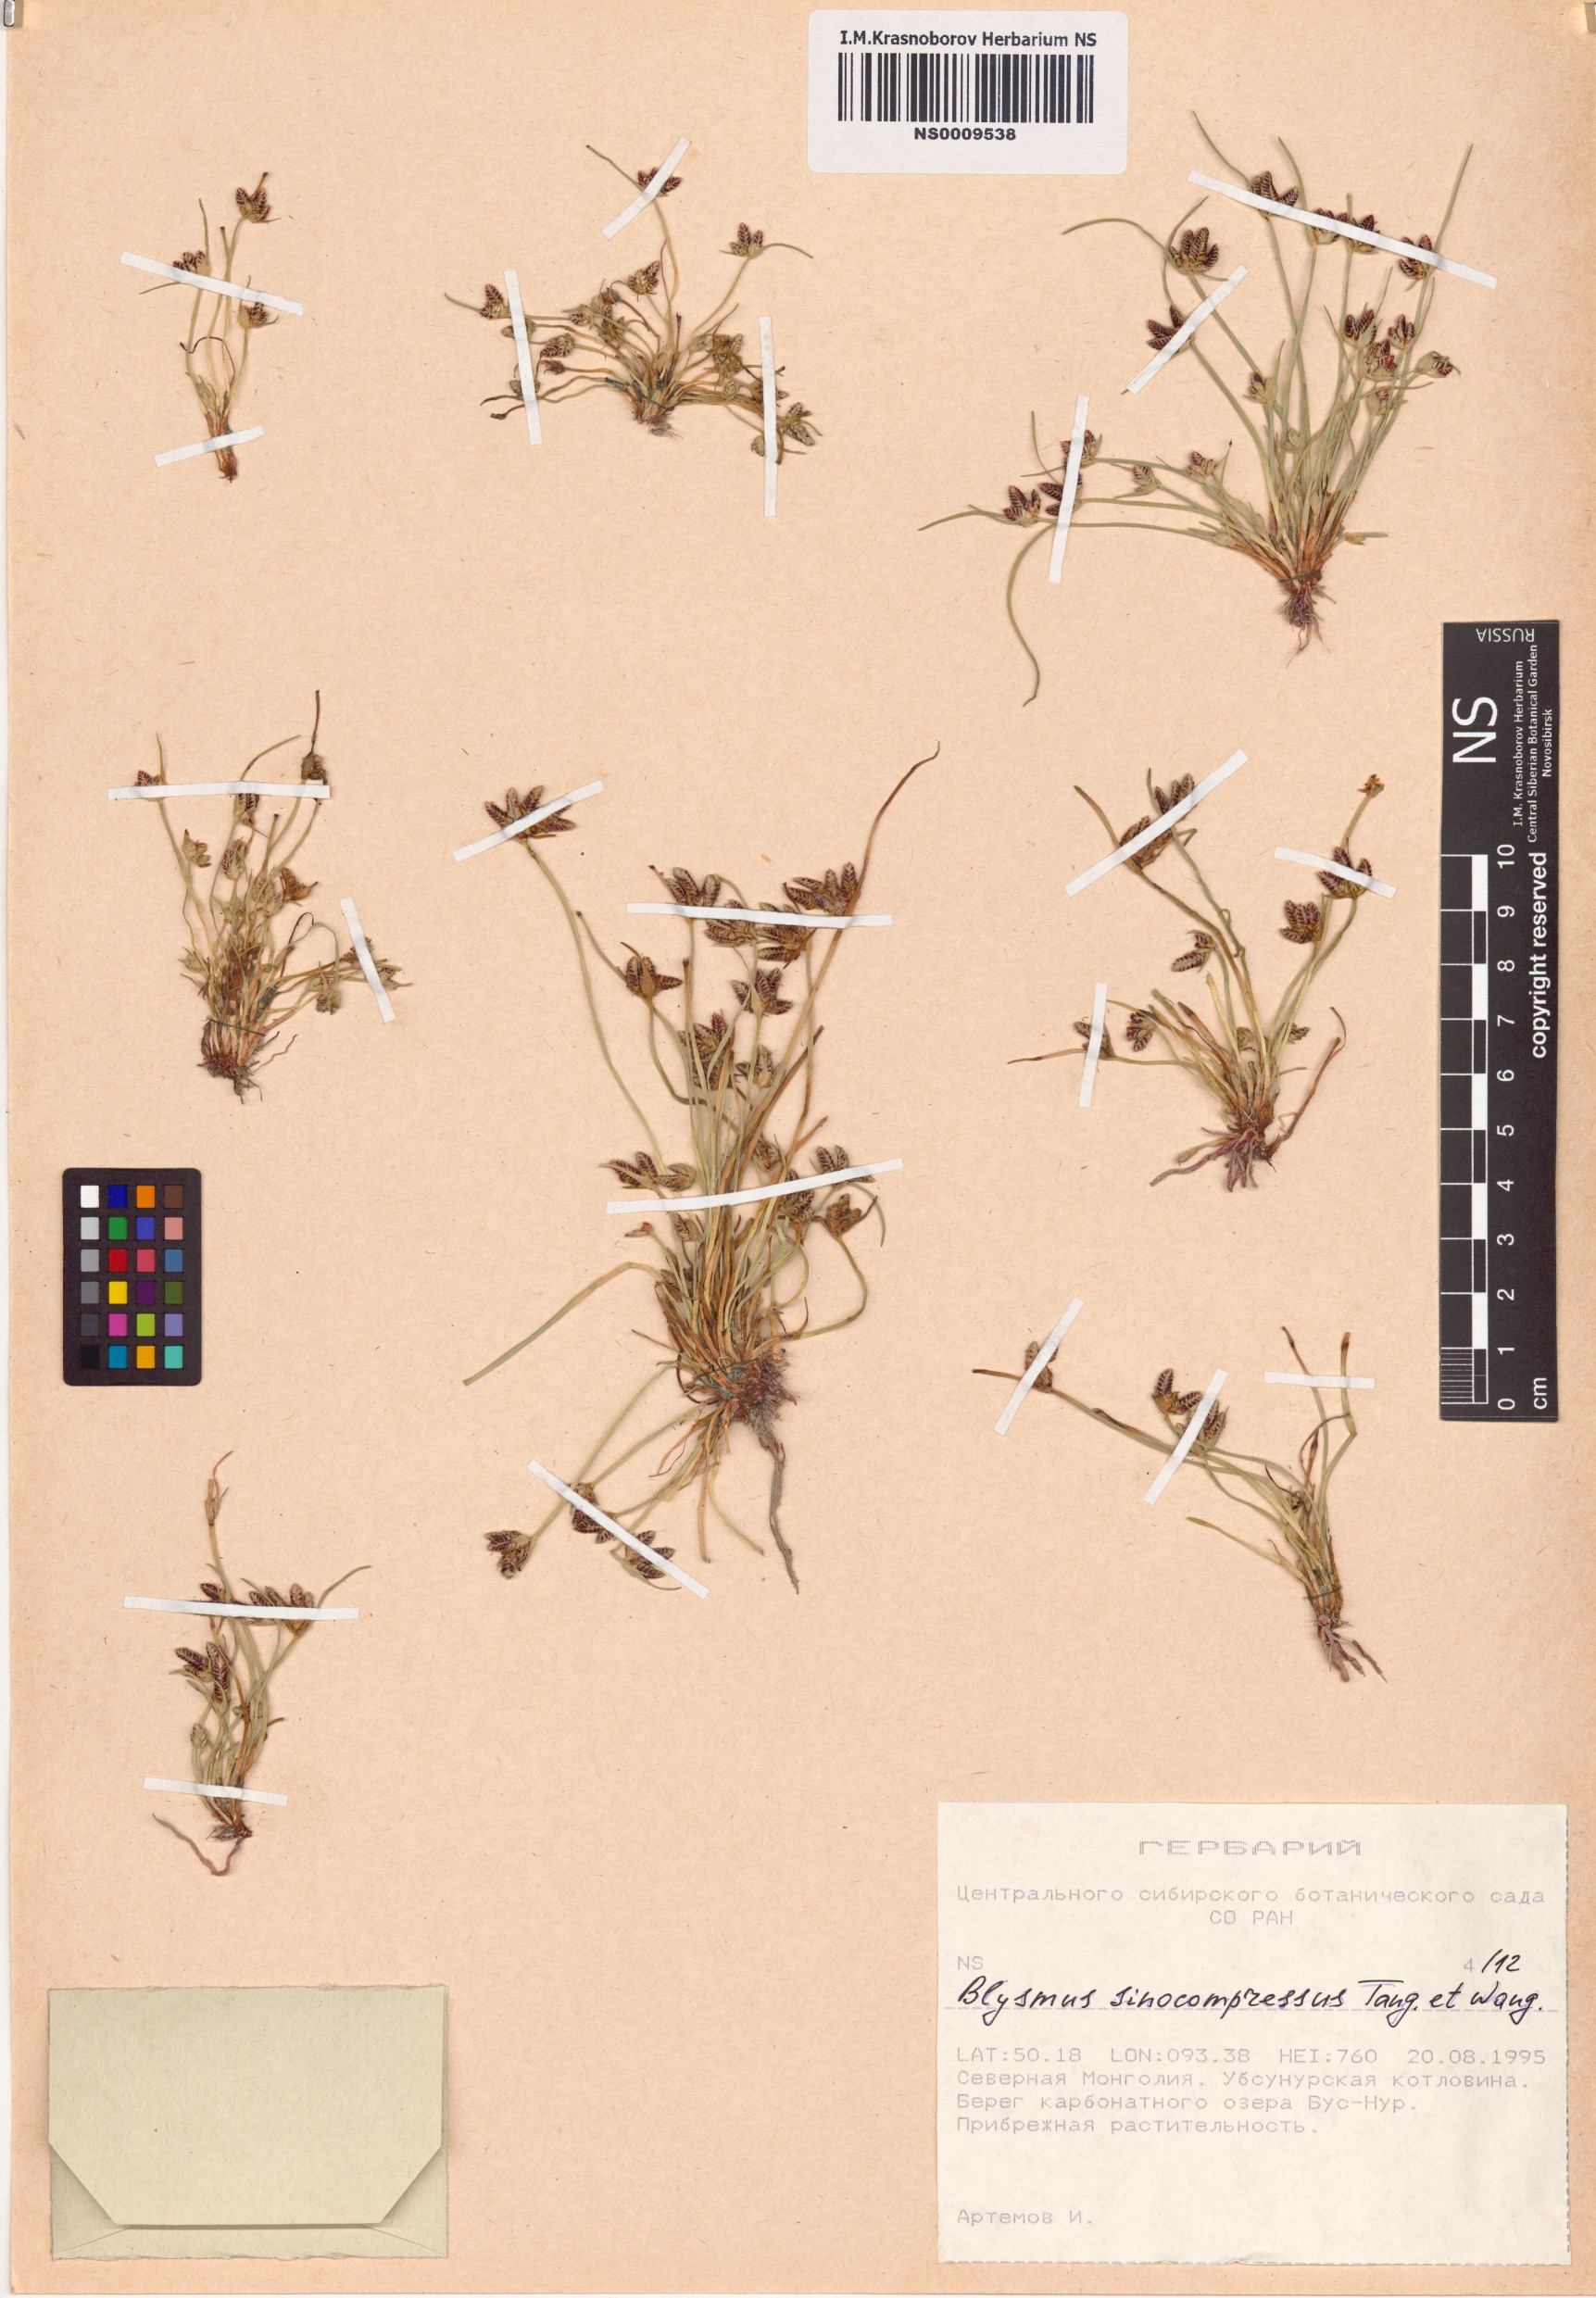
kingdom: Plantae
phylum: Tracheophyta
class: Liliopsida
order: Poales
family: Cyperaceae
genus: Blysmus
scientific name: Blysmus sinocompressus
